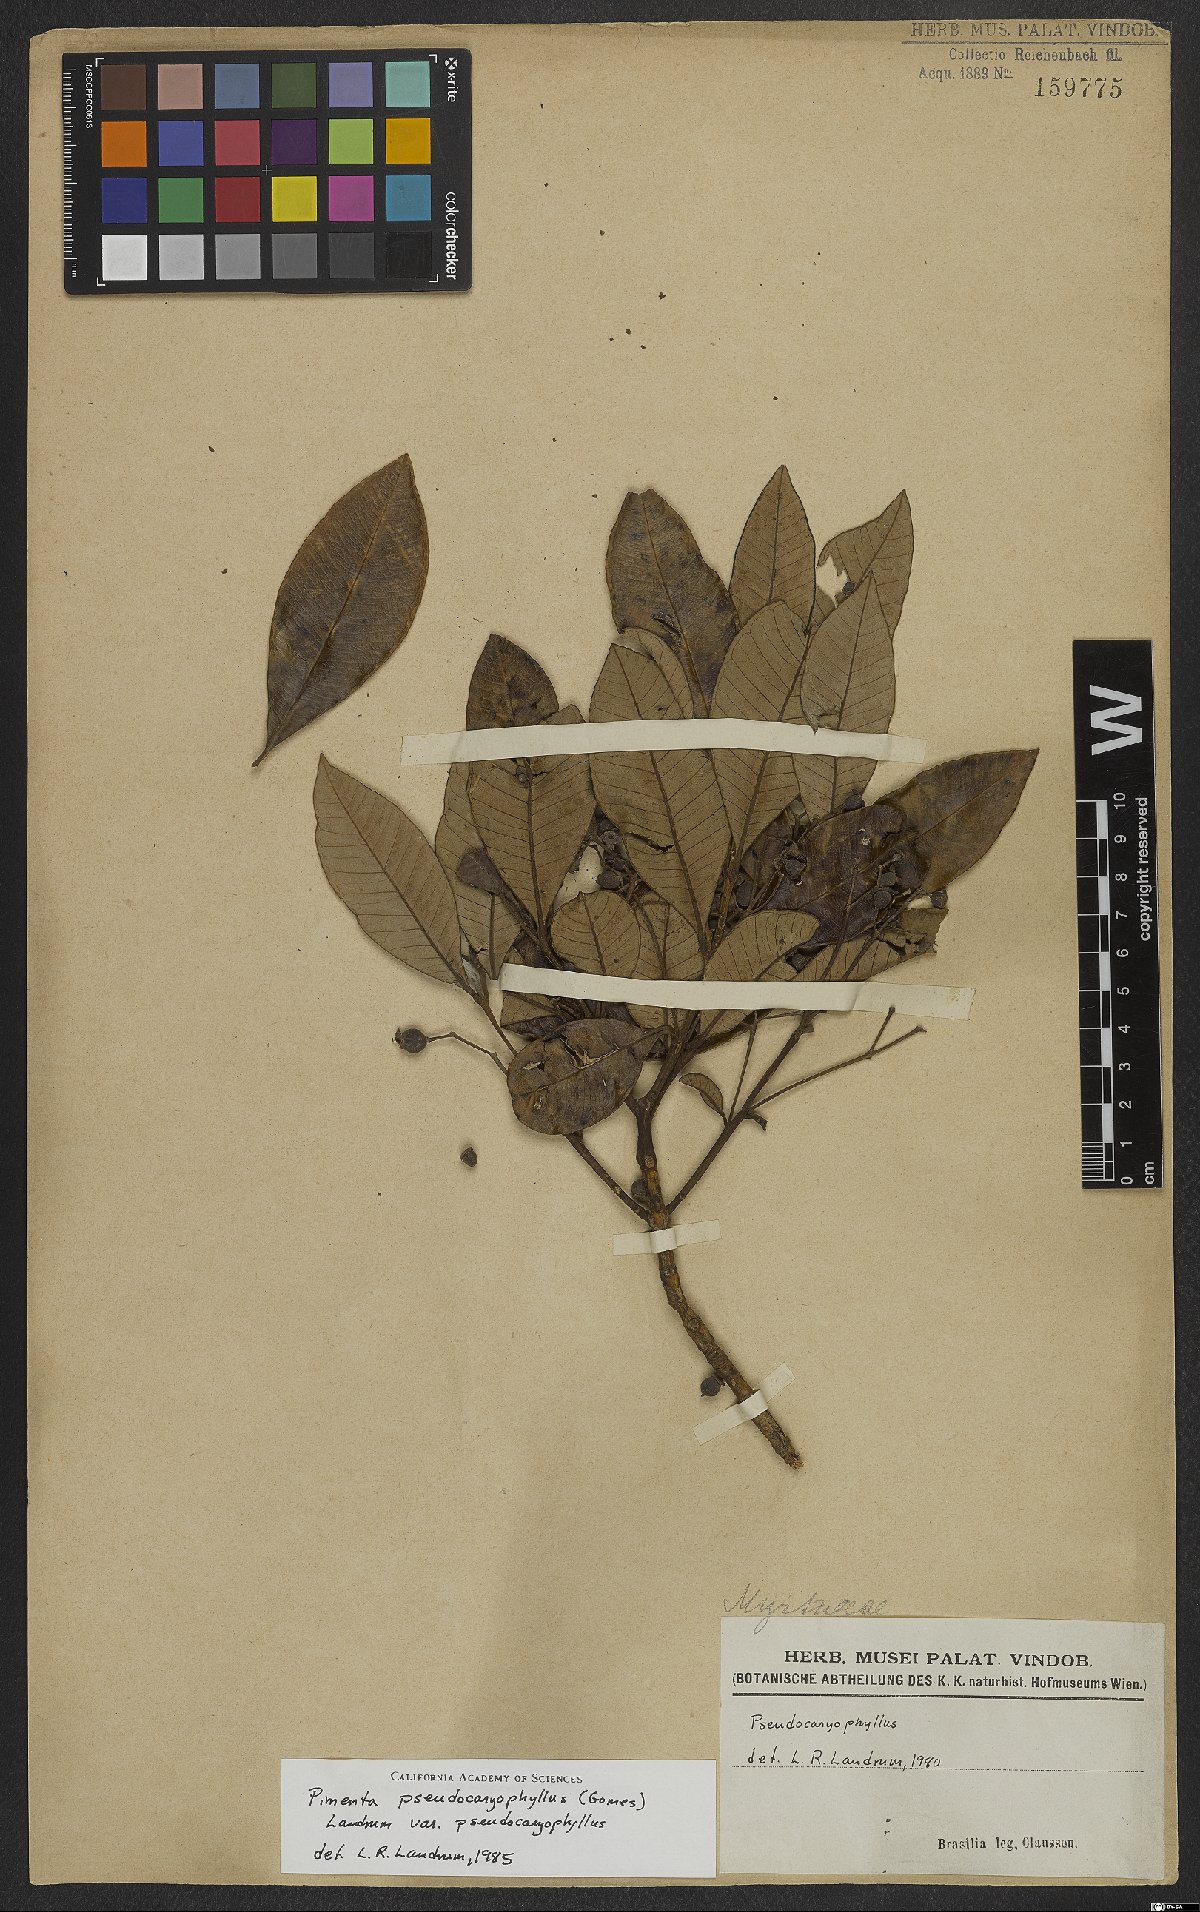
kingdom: Plantae
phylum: Tracheophyta
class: Magnoliopsida
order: Myrtales
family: Myrtaceae
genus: Pimenta
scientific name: Pimenta pseudocaryophyllus
